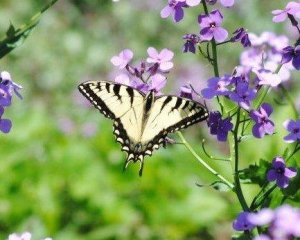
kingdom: Animalia
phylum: Arthropoda
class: Insecta
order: Lepidoptera
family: Papilionidae
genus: Pterourus
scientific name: Pterourus glaucus
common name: Eastern Tiger Swallowtail
